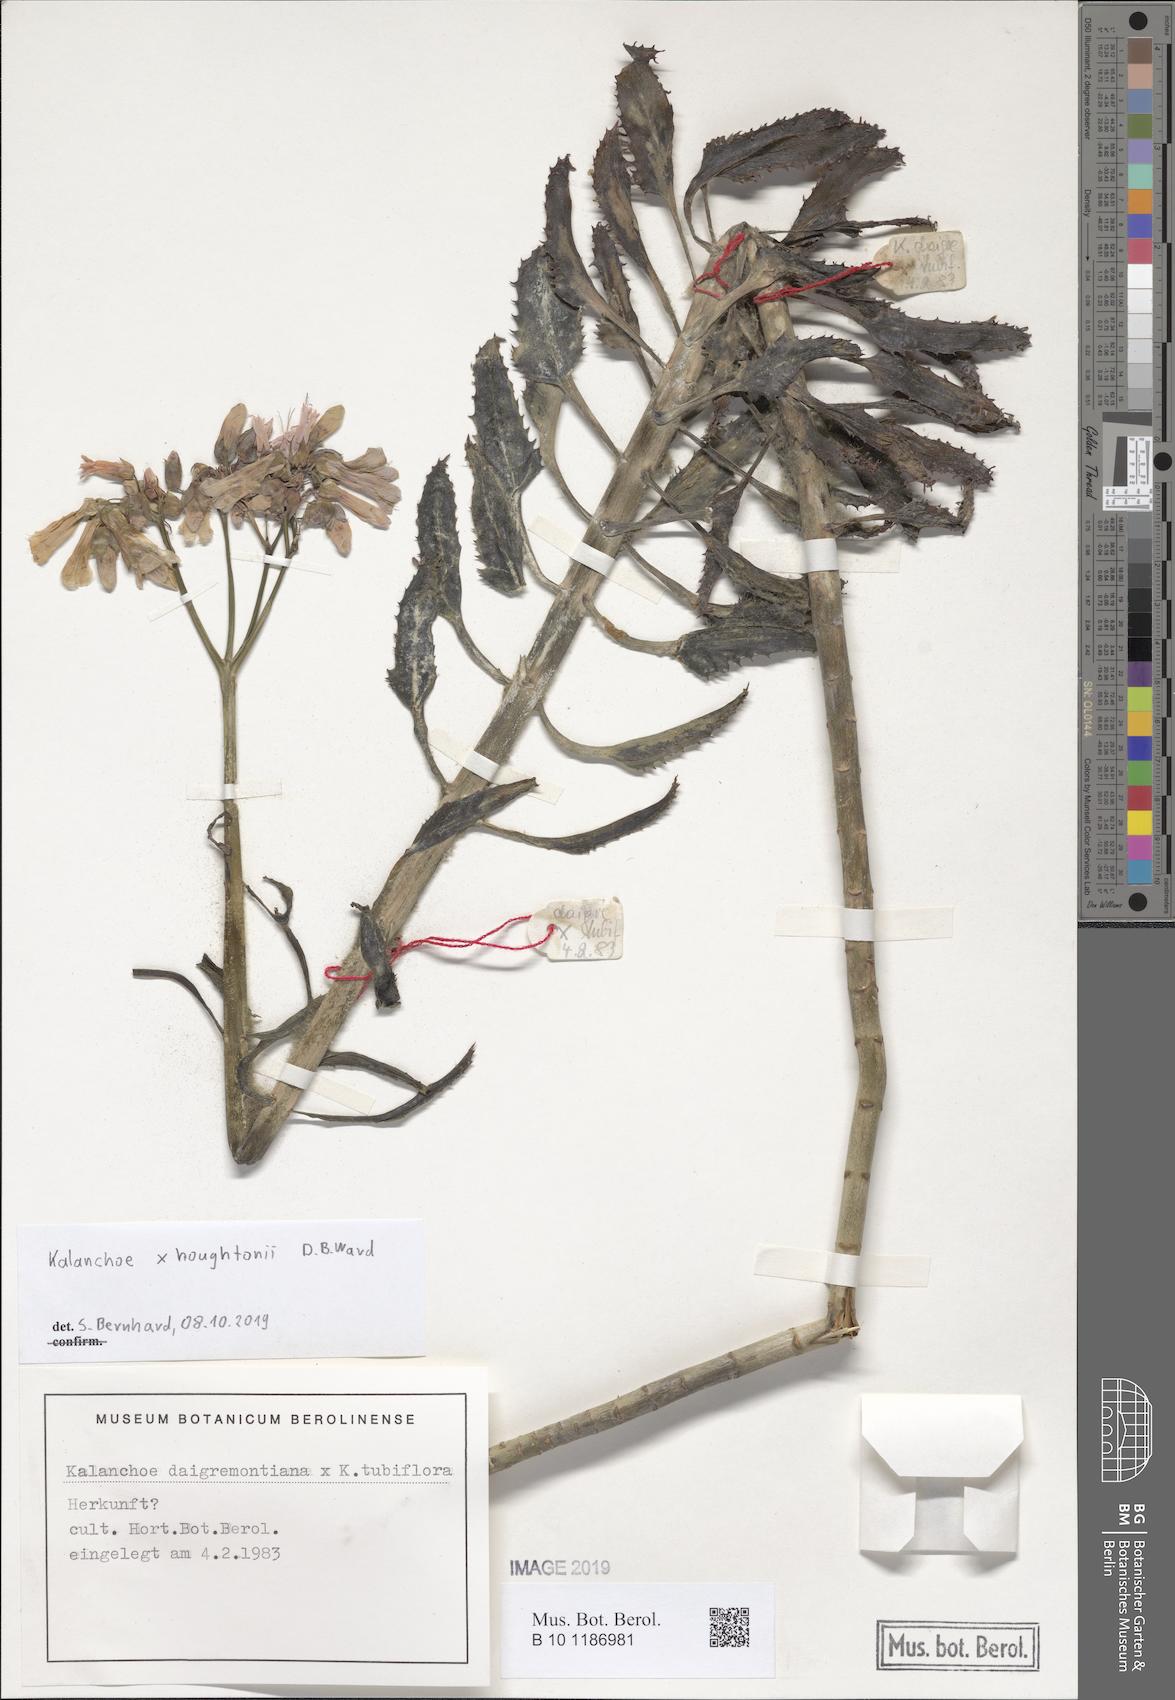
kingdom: Plantae
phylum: Tracheophyta
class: Magnoliopsida
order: Saxifragales
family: Crassulaceae
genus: Kalanchoe
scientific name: Kalanchoe houghtonii
